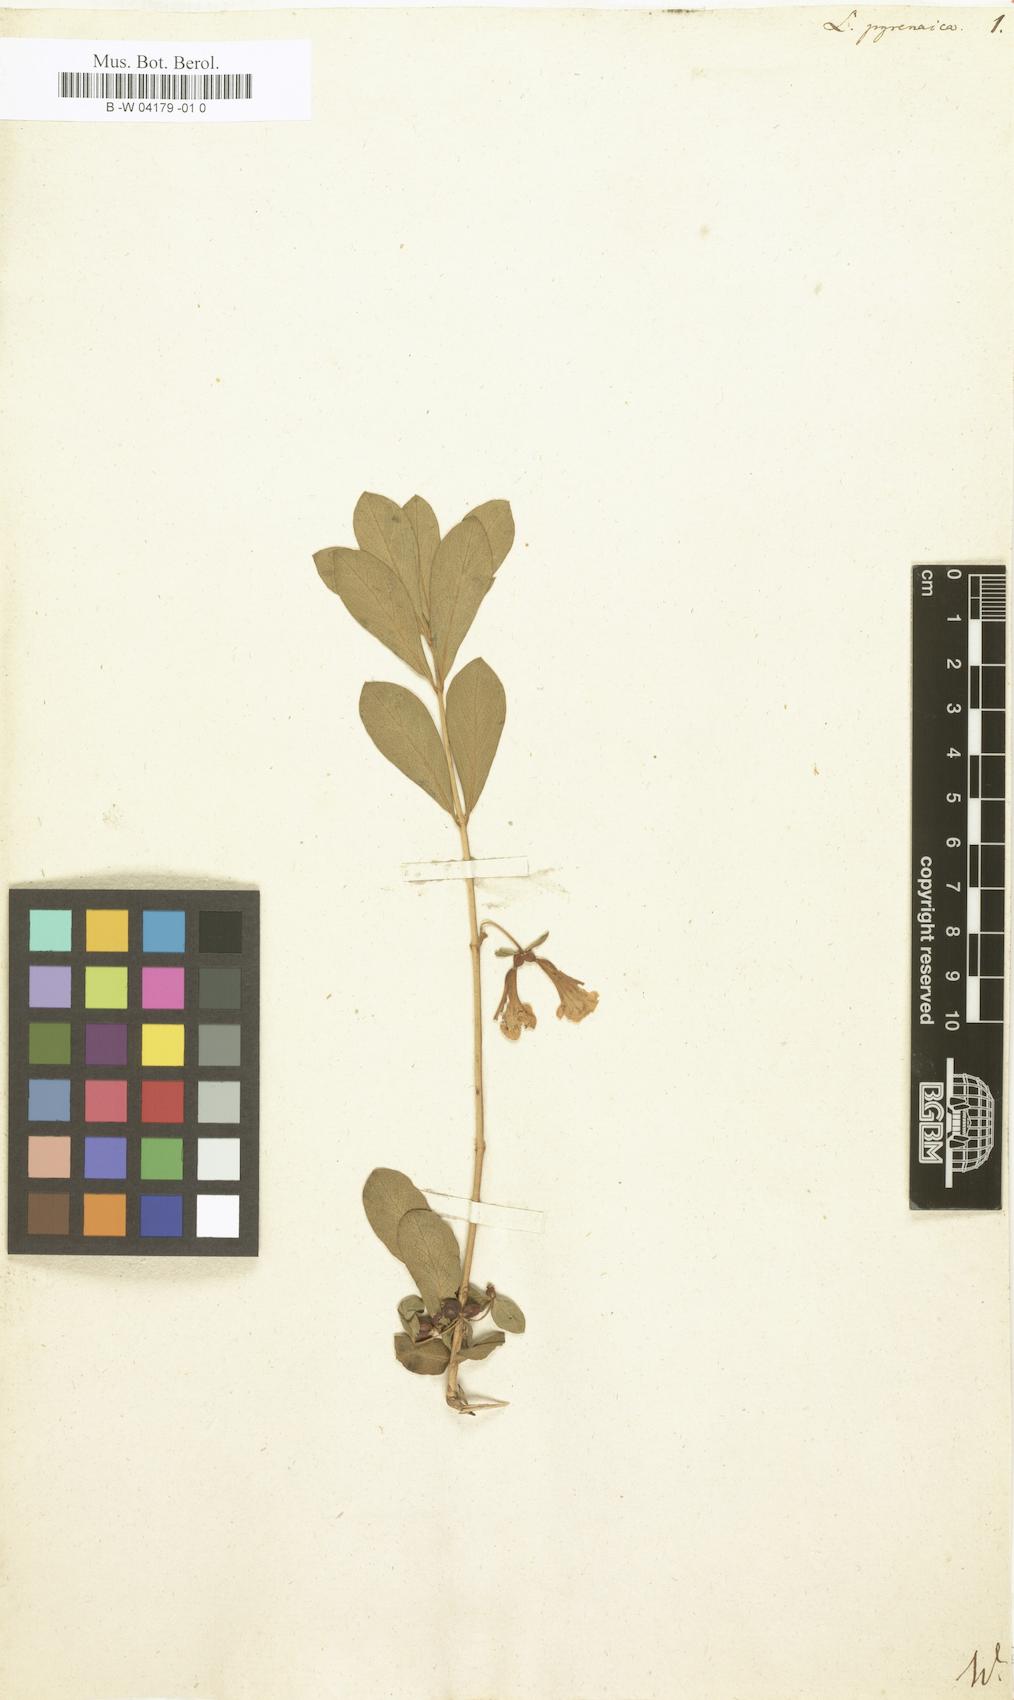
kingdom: Plantae
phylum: Tracheophyta
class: Magnoliopsida
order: Dipsacales
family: Caprifoliaceae
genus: Lonicera
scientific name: Lonicera pyrenaica
